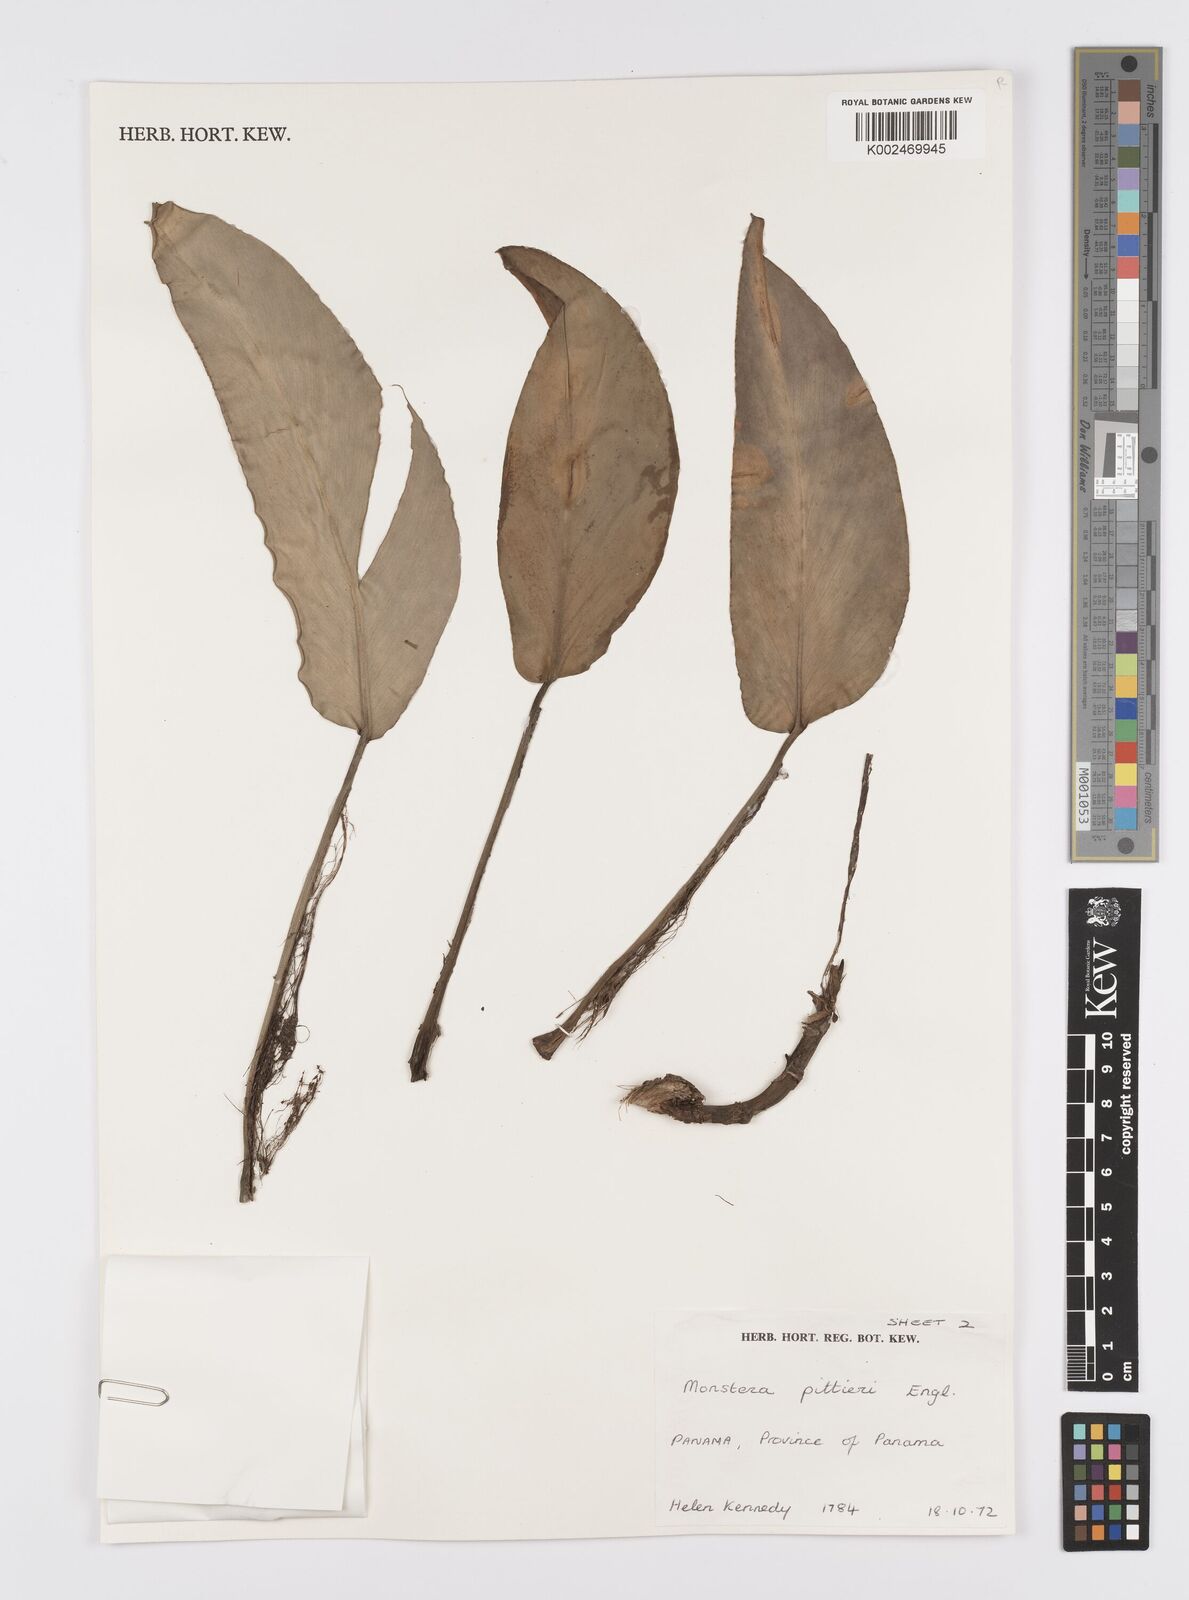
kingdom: Plantae
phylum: Tracheophyta
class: Liliopsida
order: Alismatales
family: Araceae
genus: Monstera
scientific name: Monstera pittieri
